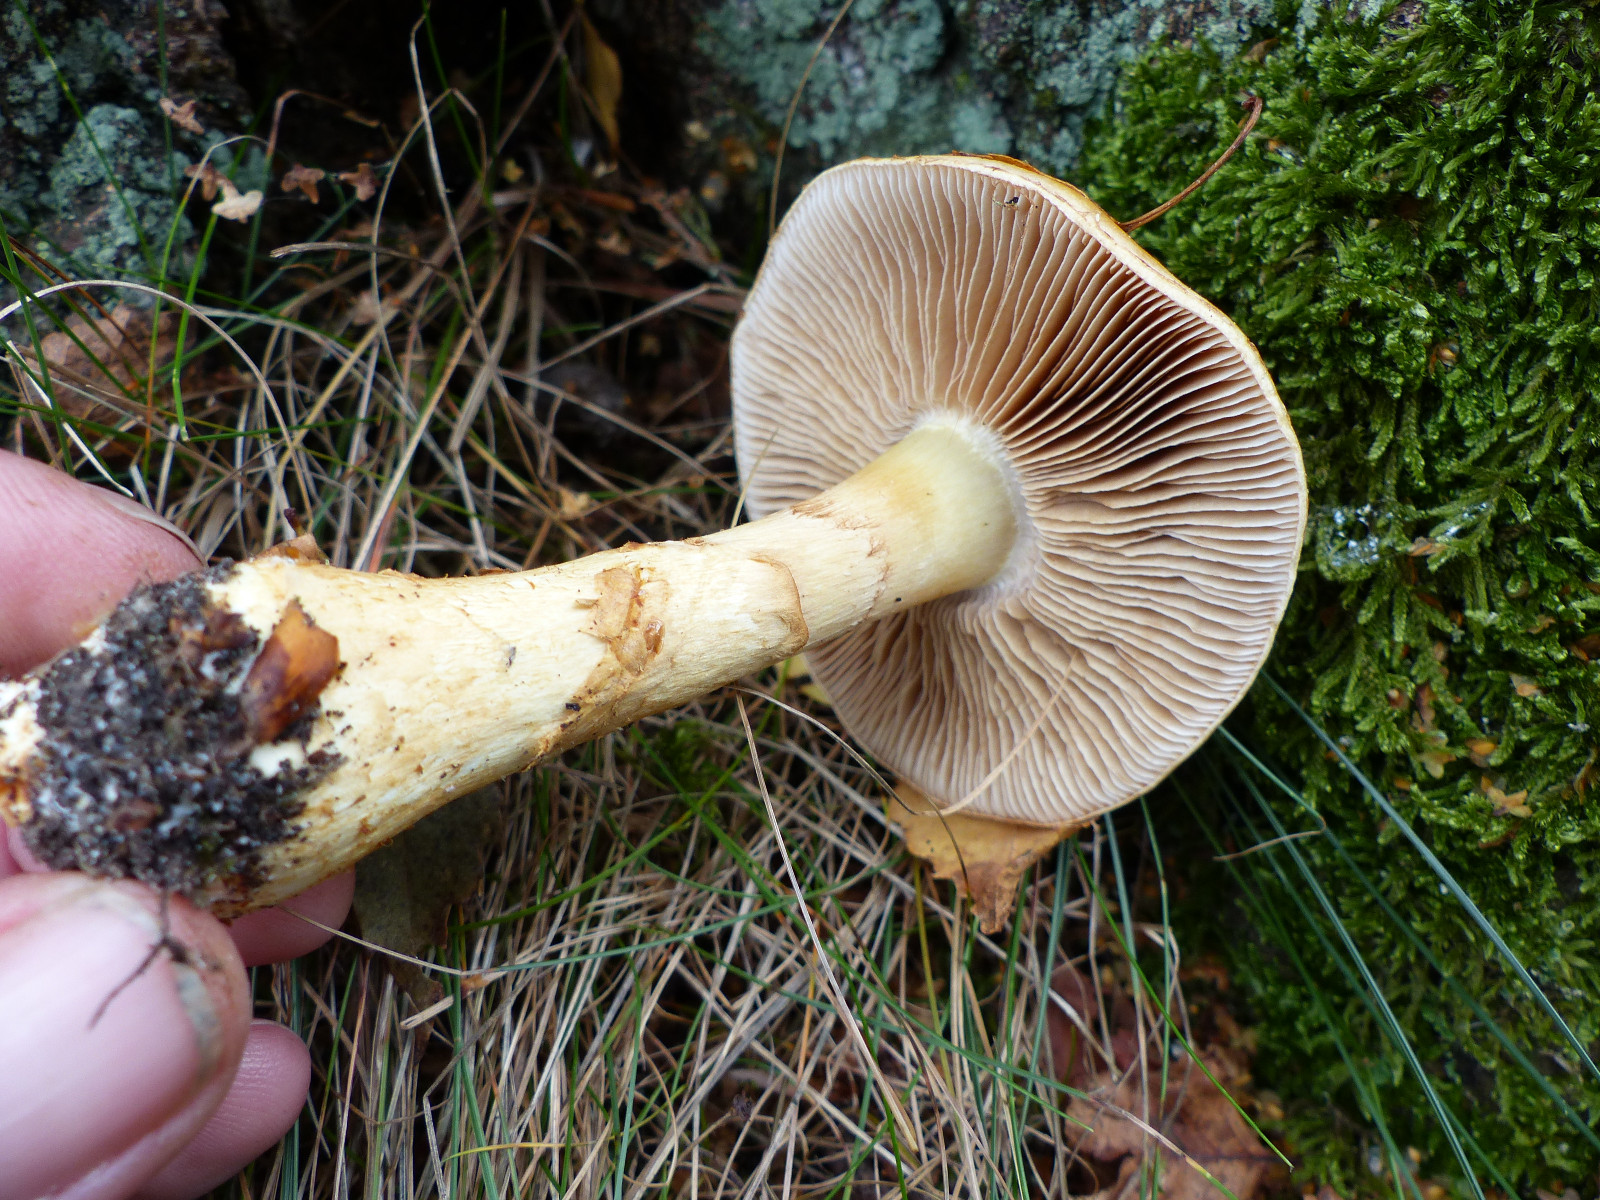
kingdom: Fungi
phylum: Basidiomycota
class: Agaricomycetes
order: Agaricales
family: Cortinariaceae
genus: Phlegmacium
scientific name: Phlegmacium triumphans
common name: gulbæltet slørhat
